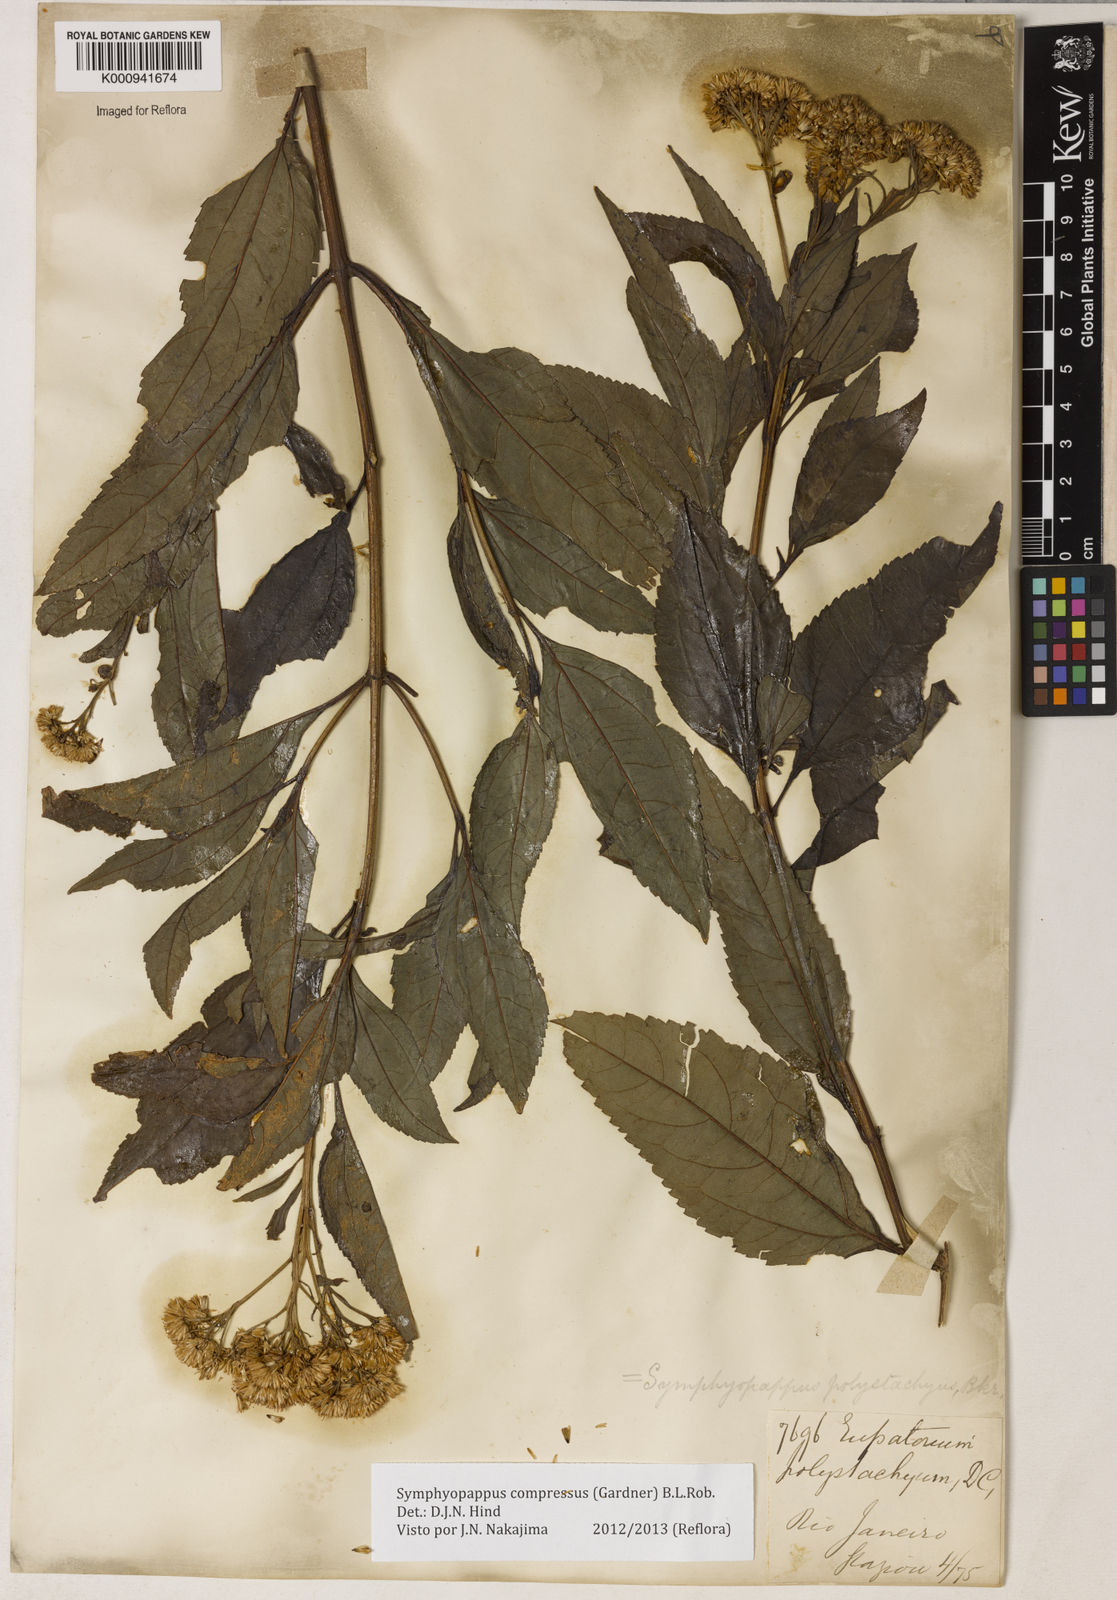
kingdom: Plantae
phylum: Tracheophyta
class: Magnoliopsida
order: Asterales
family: Asteraceae
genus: Symphyopappus
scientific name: Symphyopappus compressus
